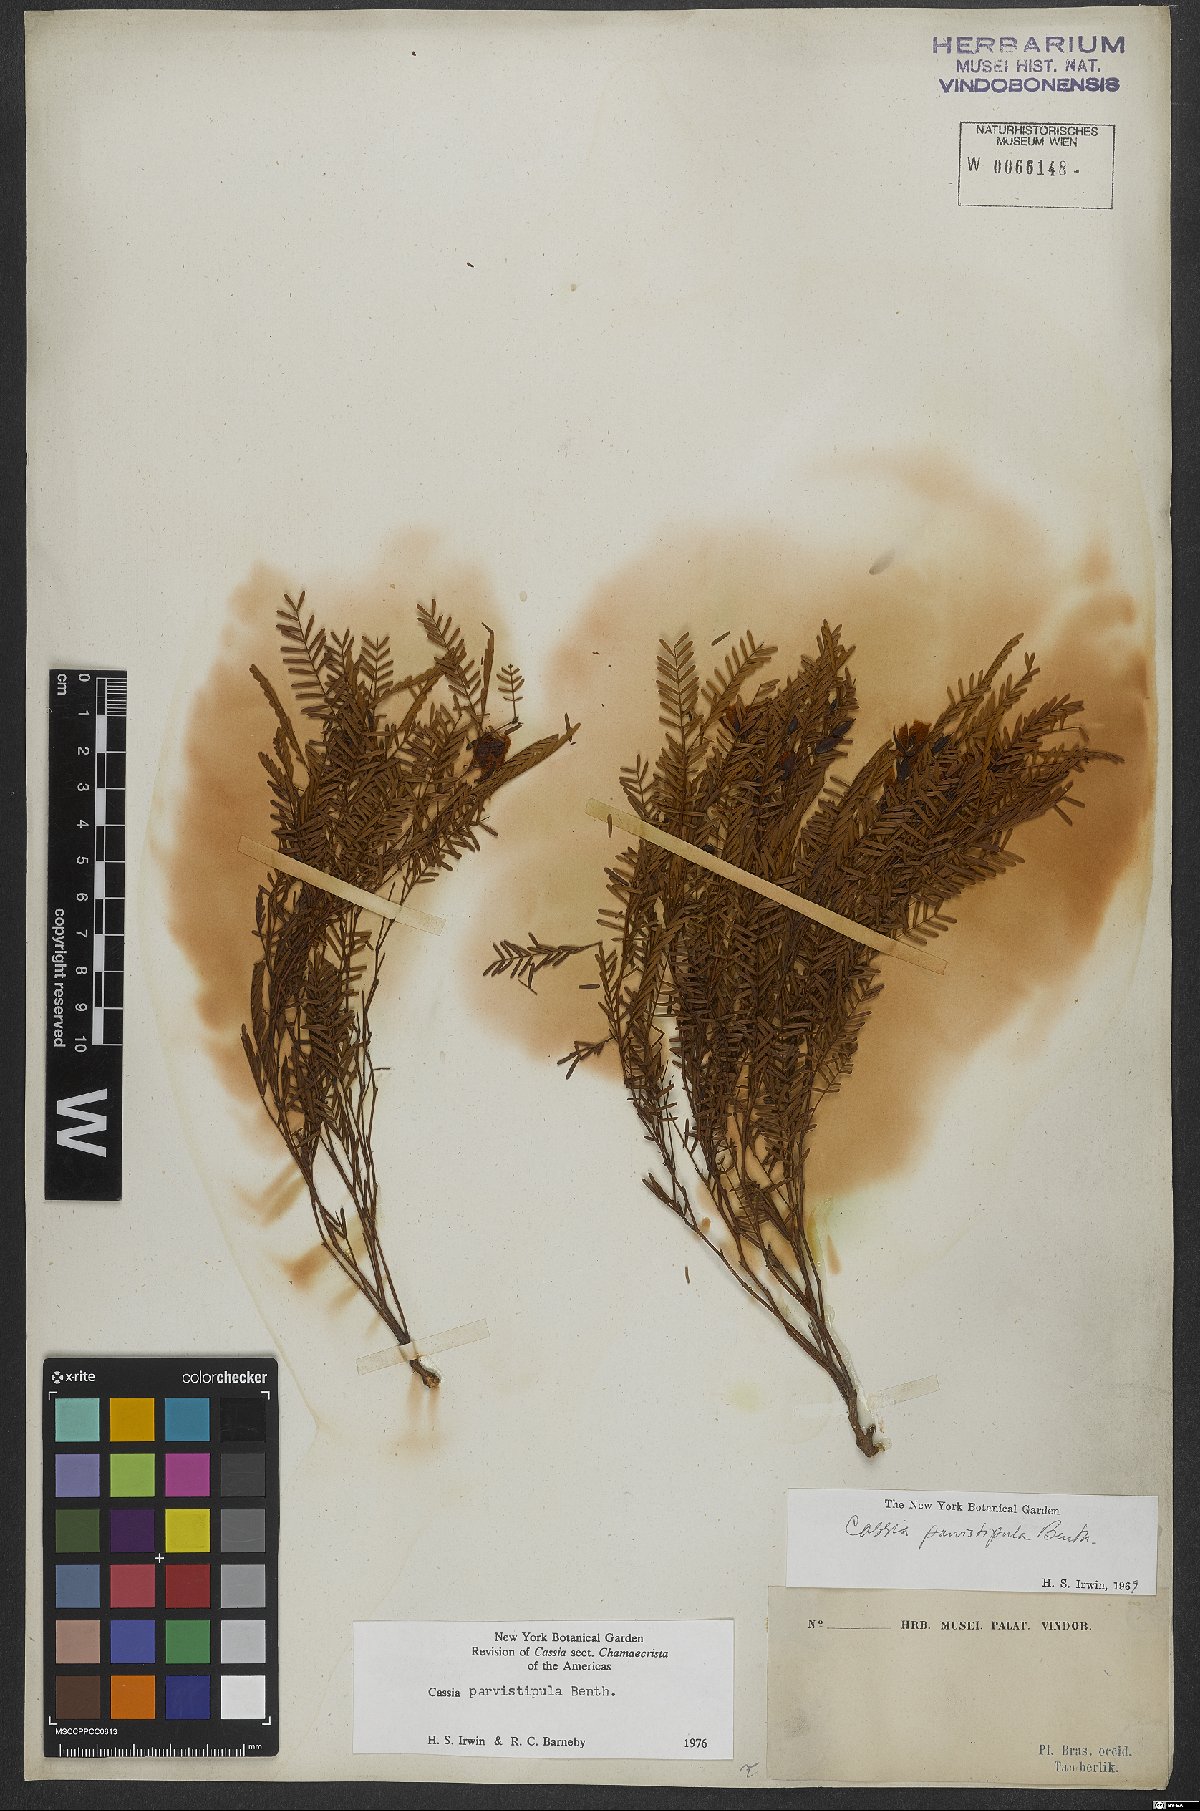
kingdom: Plantae
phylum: Tracheophyta
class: Magnoliopsida
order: Fabales
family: Fabaceae
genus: Chamaecrista
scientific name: Chamaecrista parvistipula
